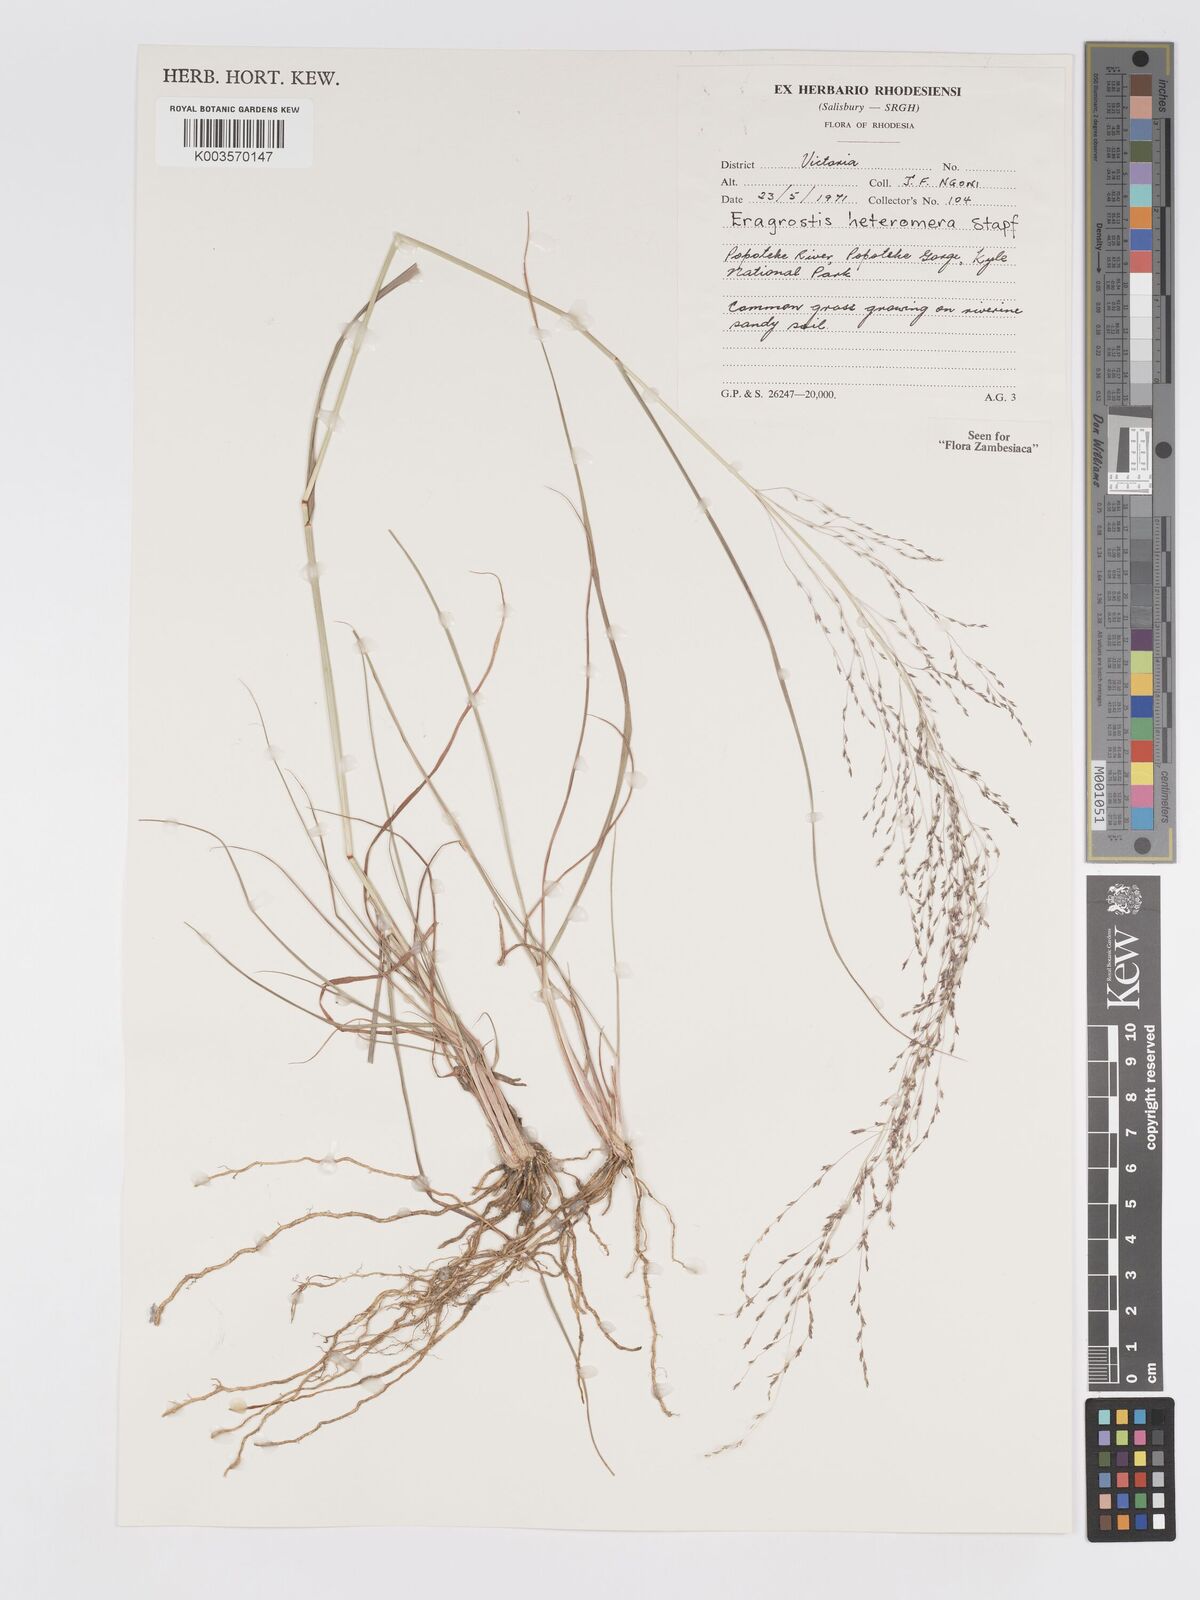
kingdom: Plantae
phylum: Tracheophyta
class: Liliopsida
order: Poales
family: Poaceae
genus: Eragrostis
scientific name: Eragrostis heteromera
